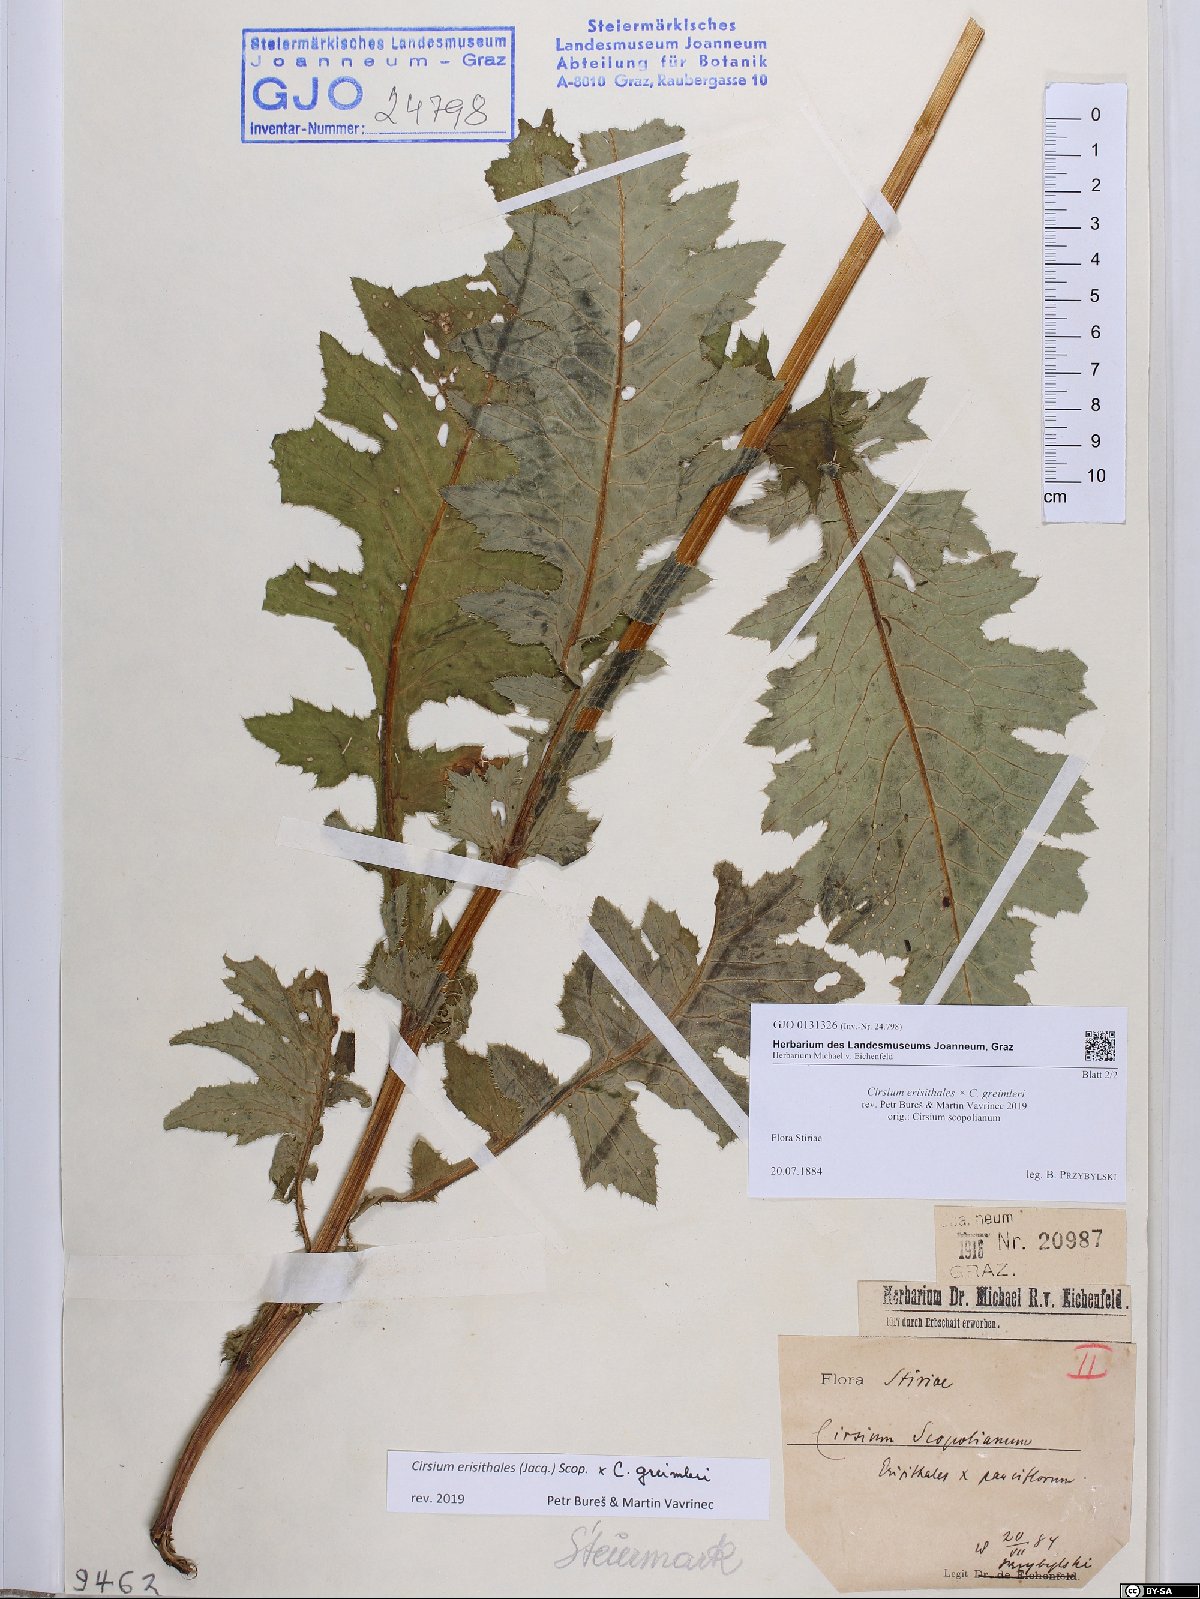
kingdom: Plantae
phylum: Tracheophyta
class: Magnoliopsida
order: Asterales
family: Asteraceae
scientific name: Asteraceae
